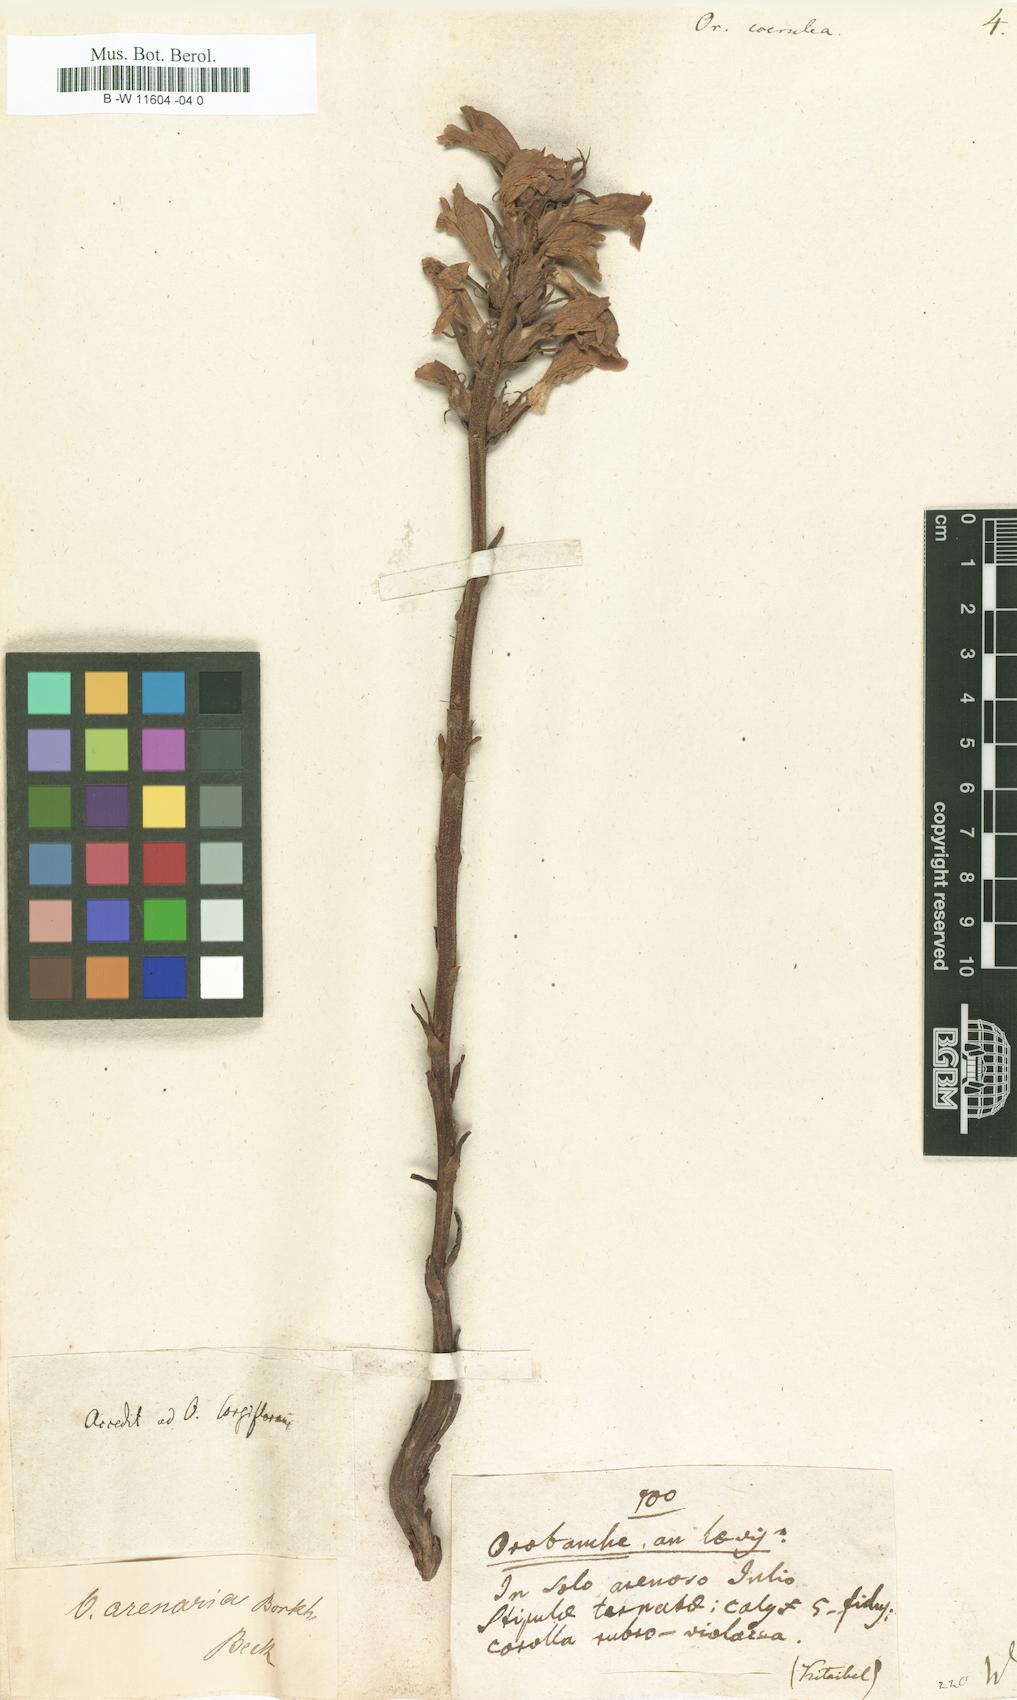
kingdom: Plantae
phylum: Tracheophyta
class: Magnoliopsida
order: Lamiales
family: Orobanchaceae
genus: Phelipanche
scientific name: Phelipanche purpurea
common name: Purple broomrape
